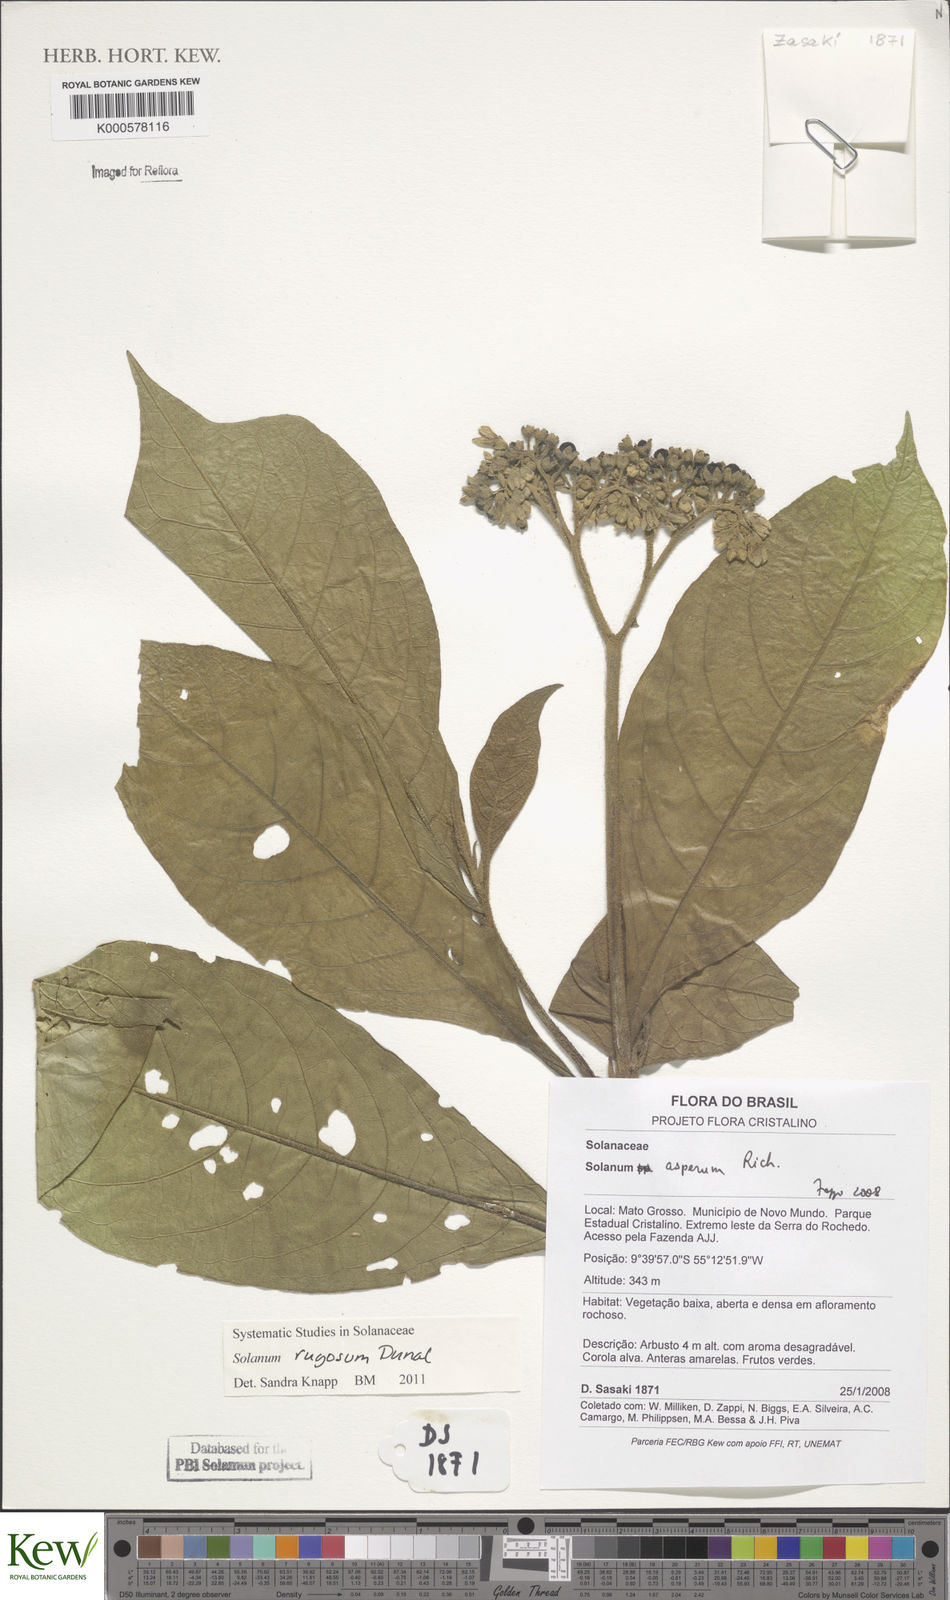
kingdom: Plantae
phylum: Tracheophyta
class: Magnoliopsida
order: Solanales
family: Solanaceae
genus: Solanum
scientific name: Solanum asperum
